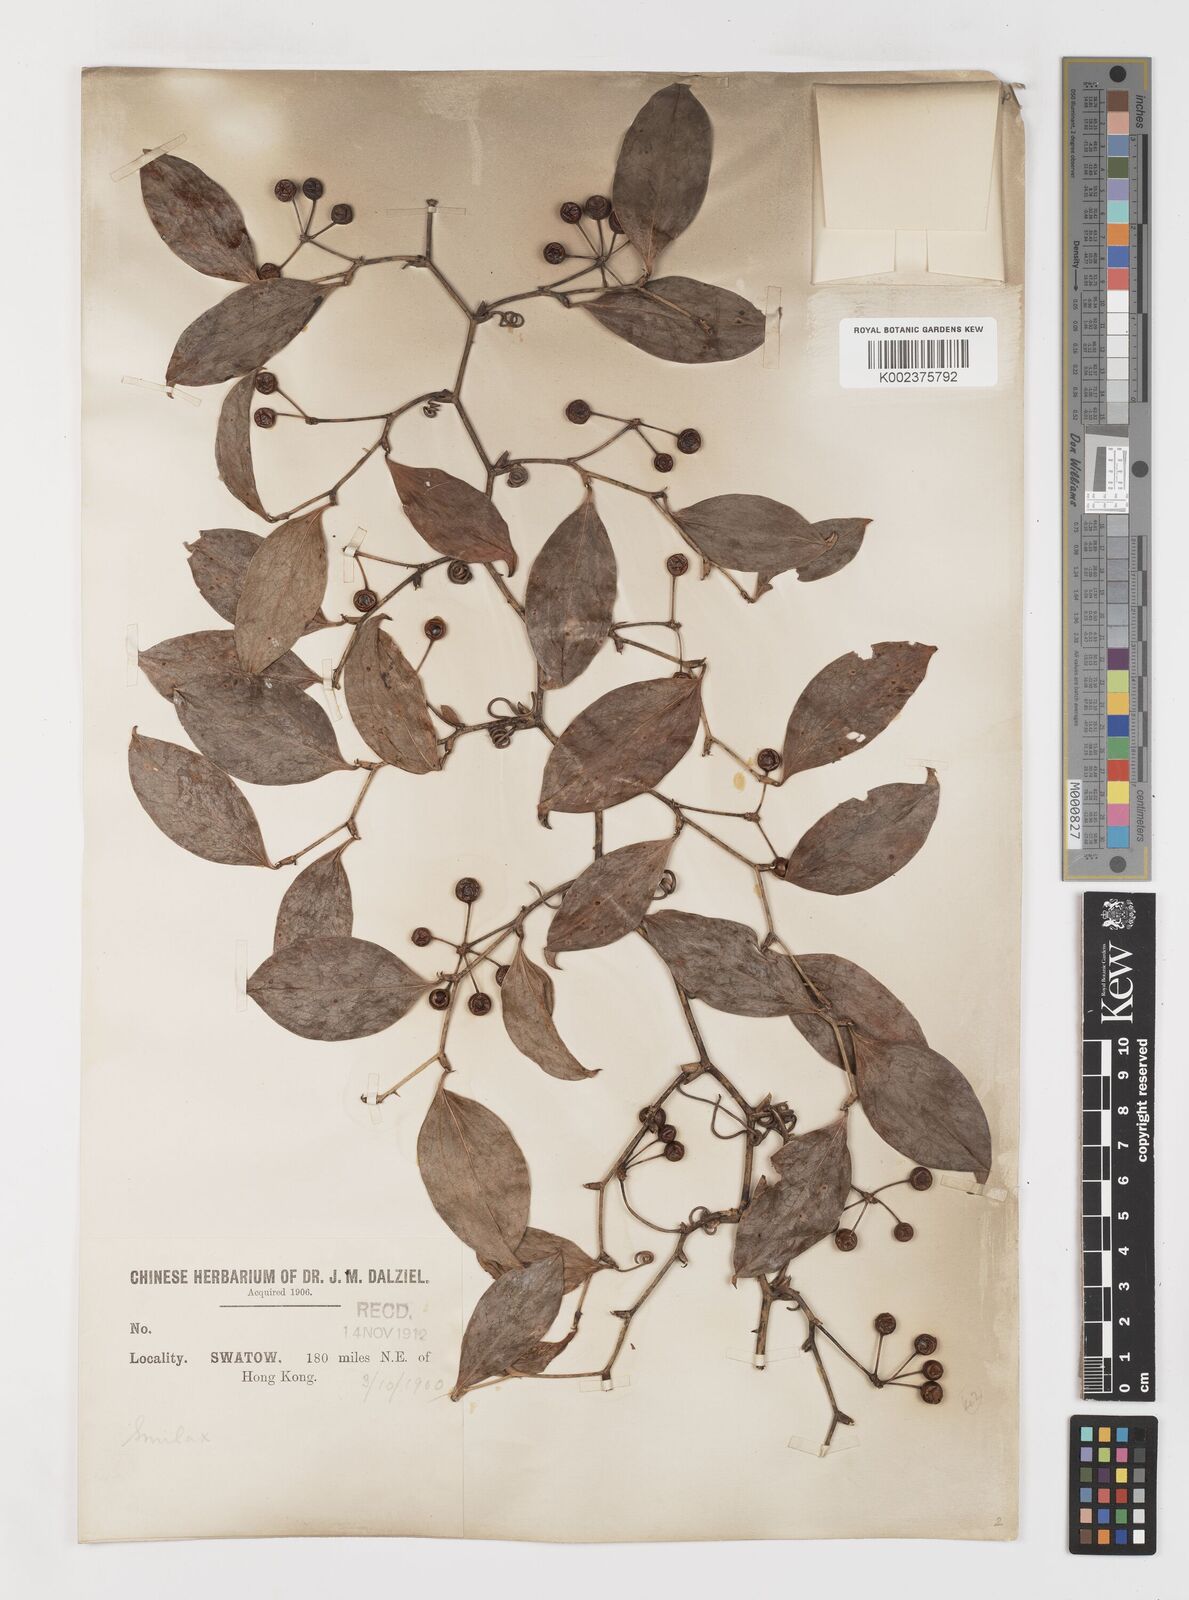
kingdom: Plantae
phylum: Tracheophyta
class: Liliopsida
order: Liliales
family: Smilacaceae
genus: Smilax
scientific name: Smilax china
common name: Chinaroot
